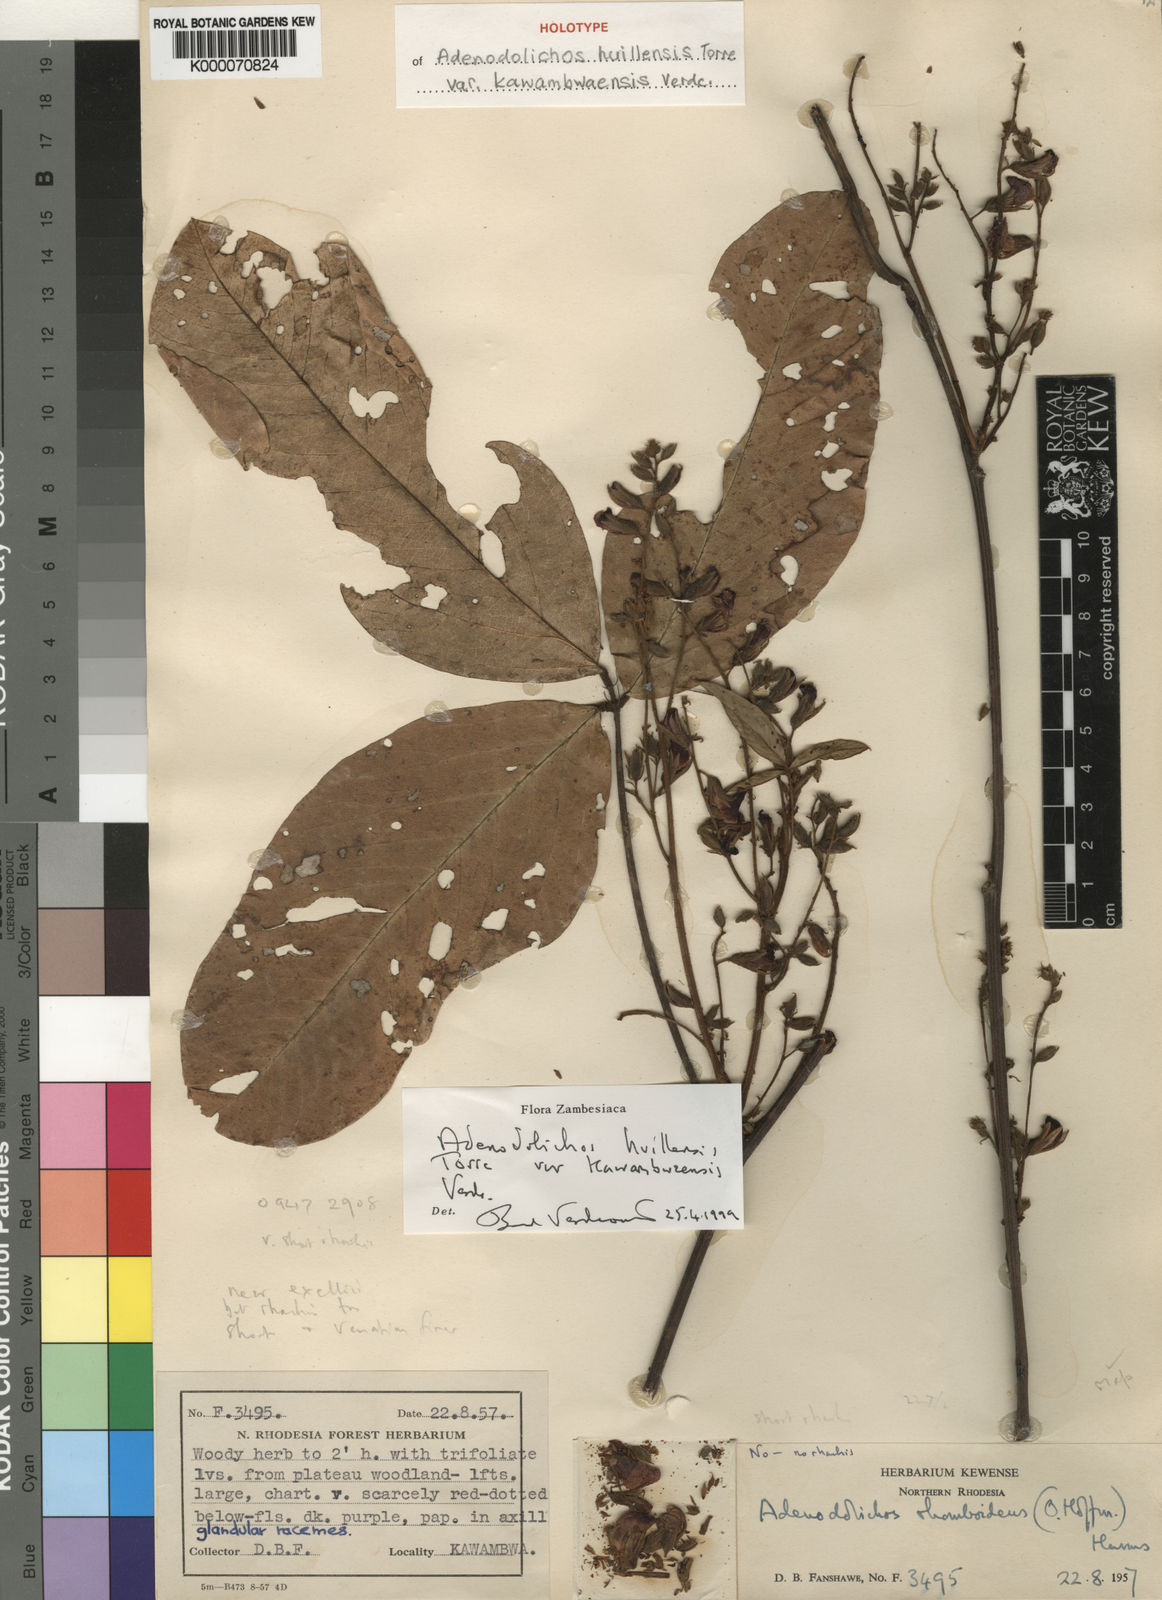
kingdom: Plantae
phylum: Tracheophyta
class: Magnoliopsida
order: Fabales
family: Fabaceae
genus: Adenodolichos
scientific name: Adenodolichos huillensis
